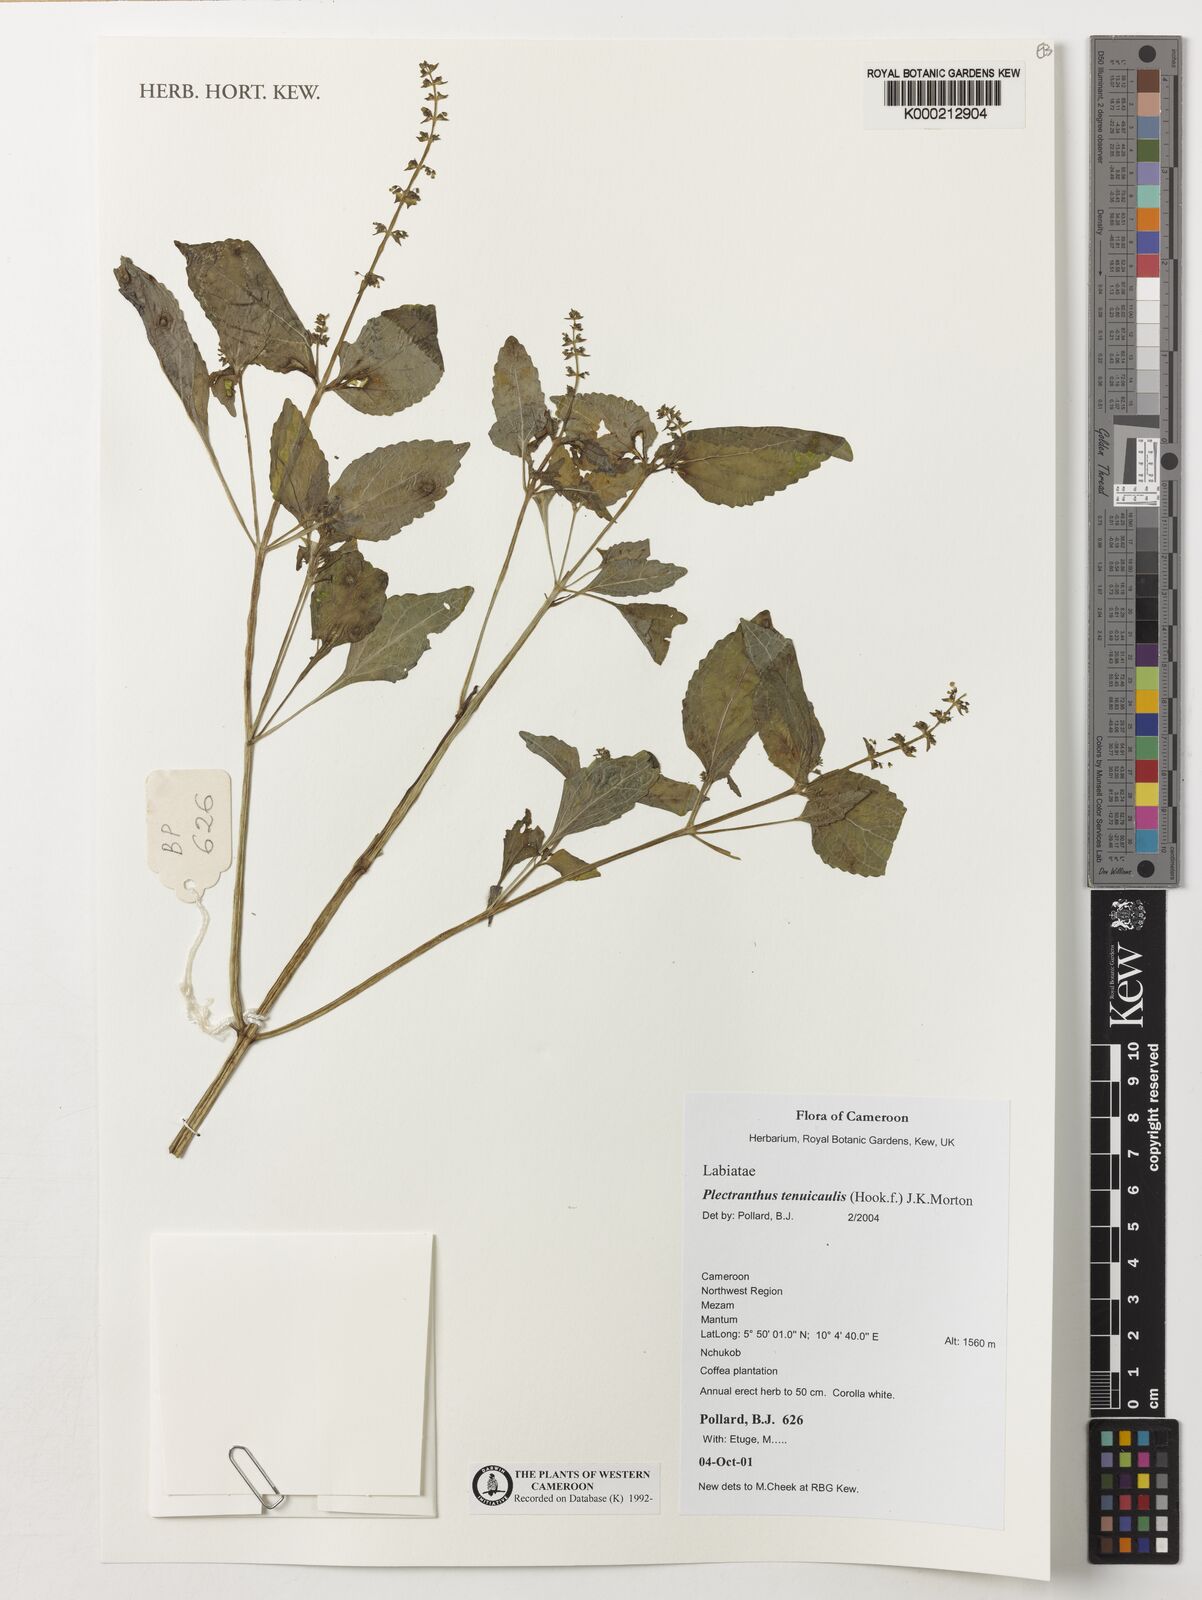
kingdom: Plantae
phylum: Tracheophyta
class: Magnoliopsida
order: Lamiales
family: Lamiaceae
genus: Coleus
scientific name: Coleus tenuicaulis
